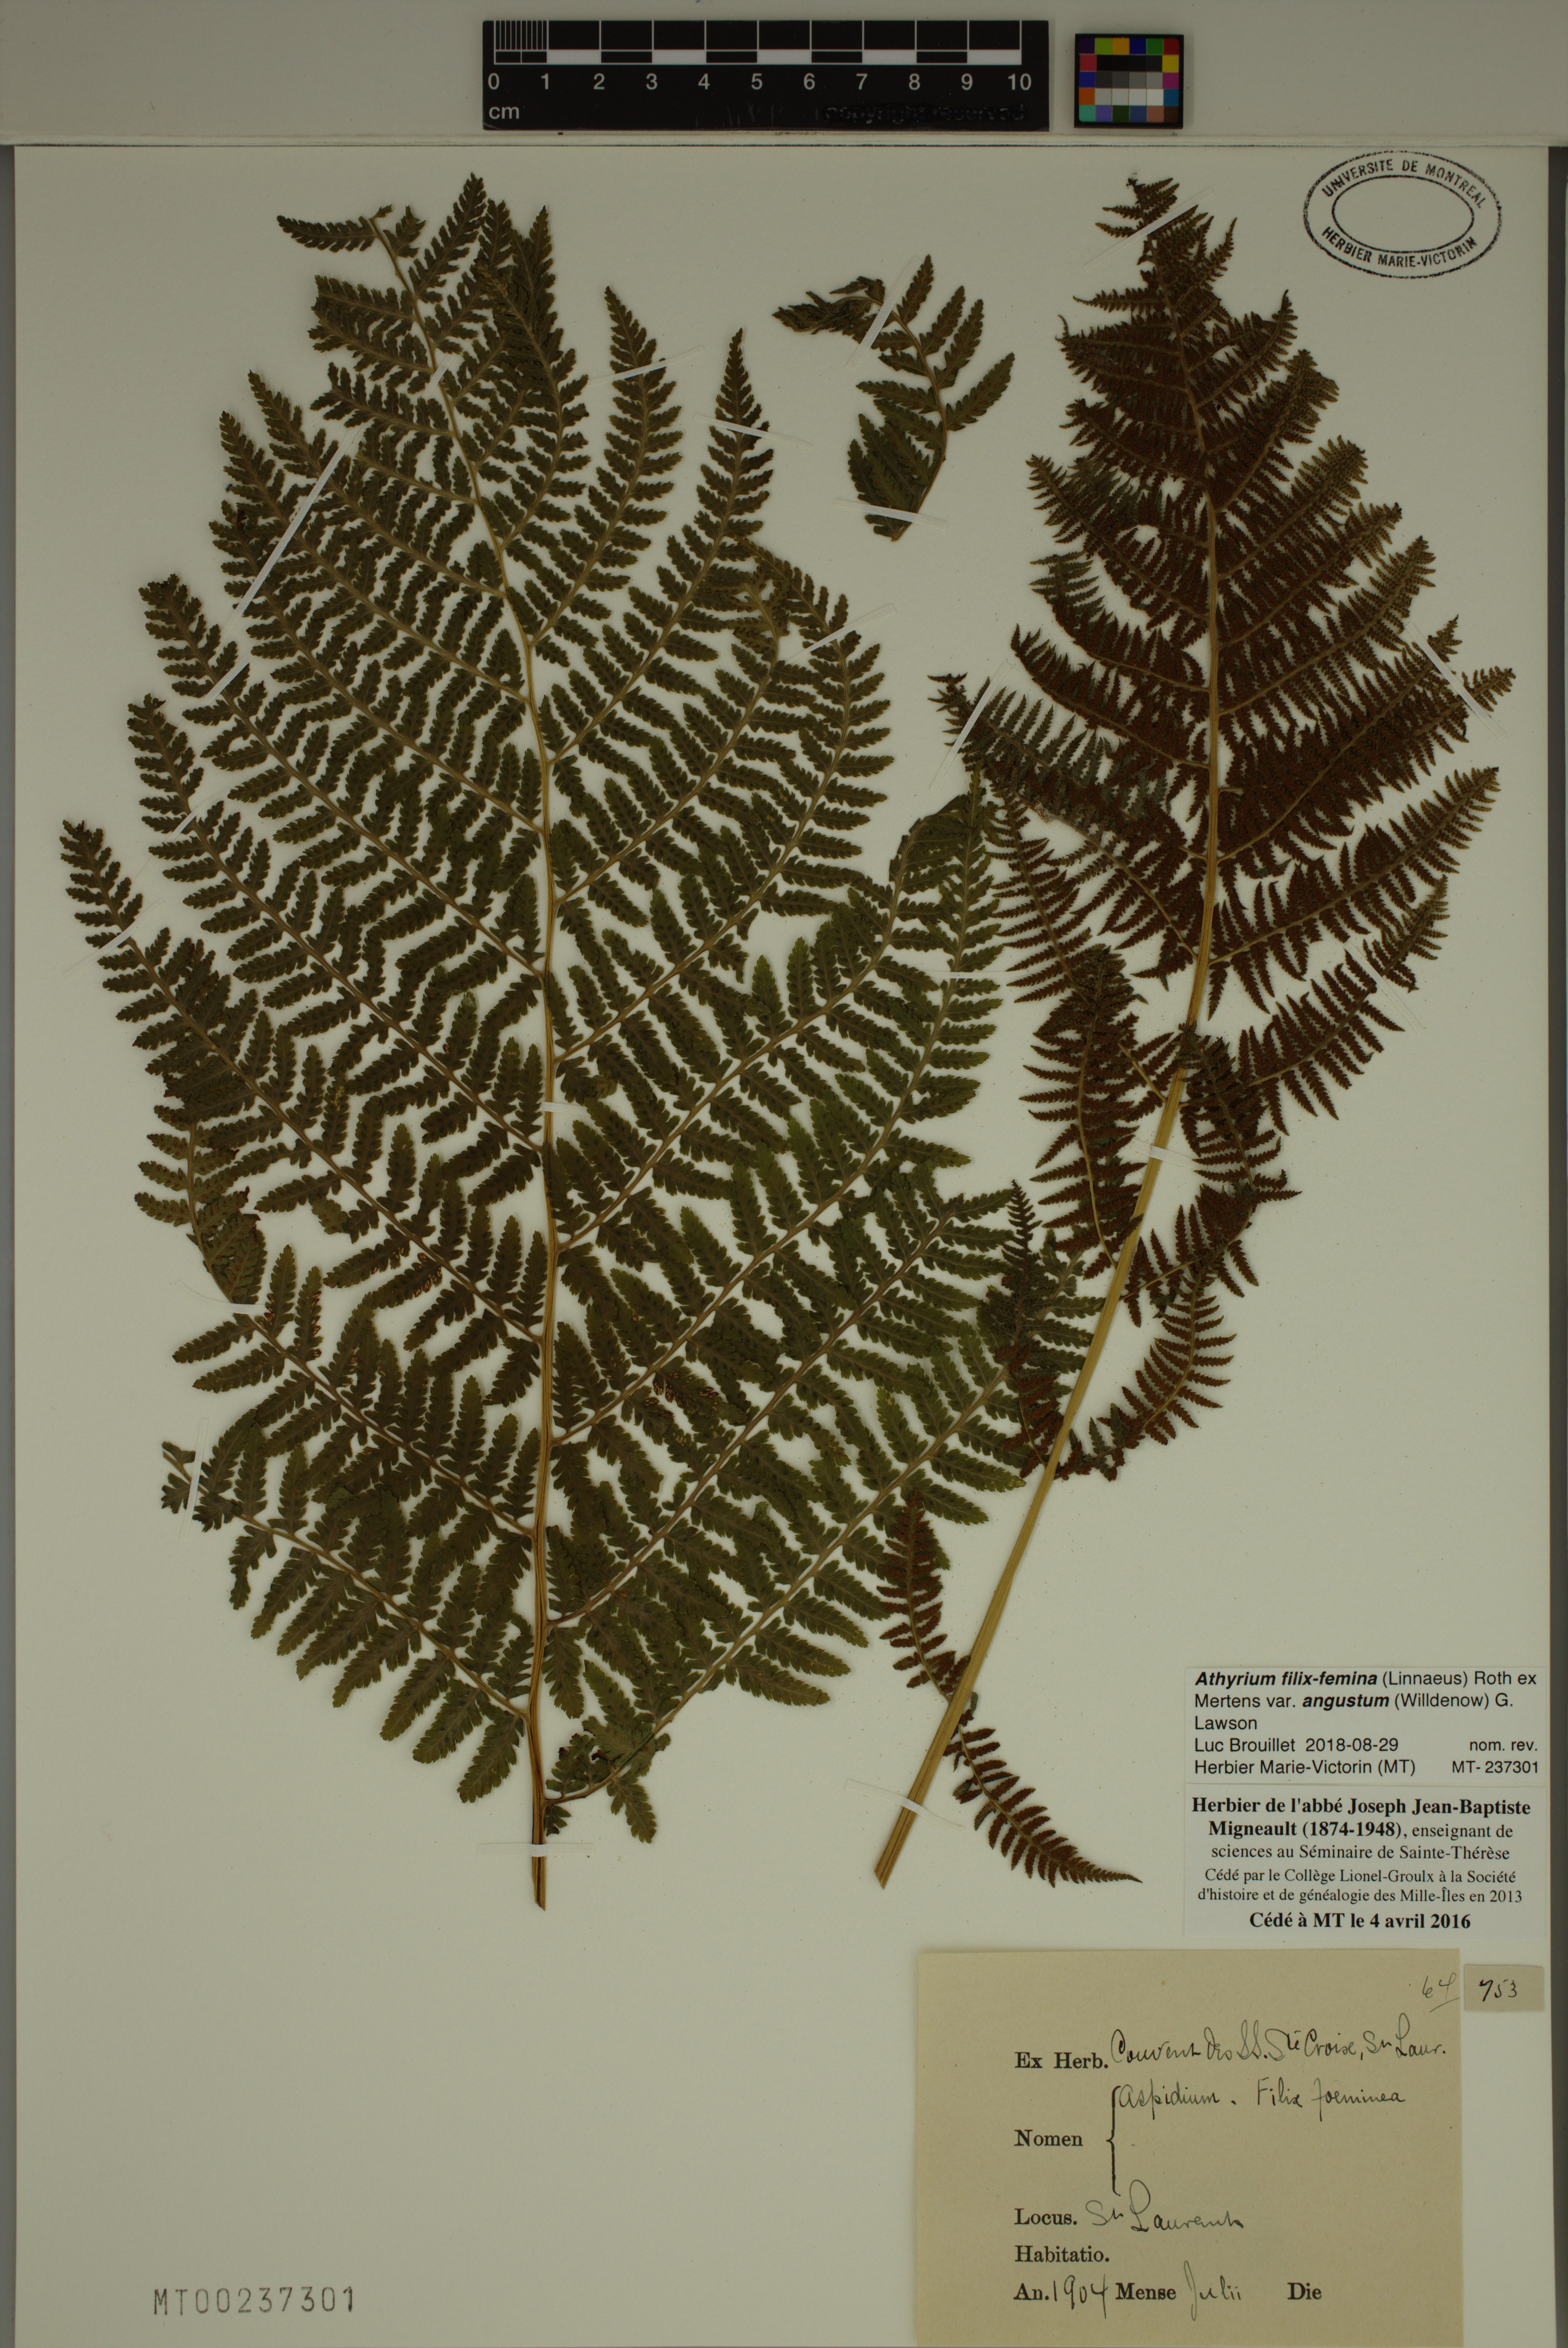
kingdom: Plantae
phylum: Tracheophyta
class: Polypodiopsida
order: Polypodiales
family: Athyriaceae
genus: Athyrium
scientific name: Athyrium angustum
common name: Northern lady fern
